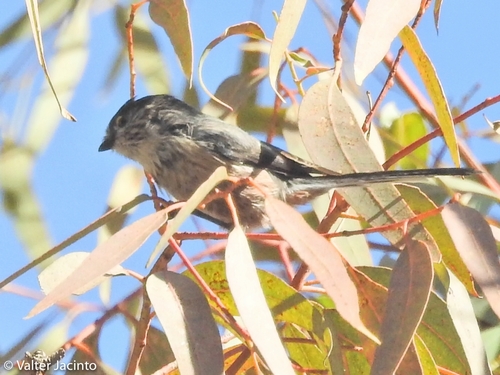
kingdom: Animalia
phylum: Chordata
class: Aves
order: Passeriformes
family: Aegithalidae
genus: Aegithalos
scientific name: Aegithalos caudatus
